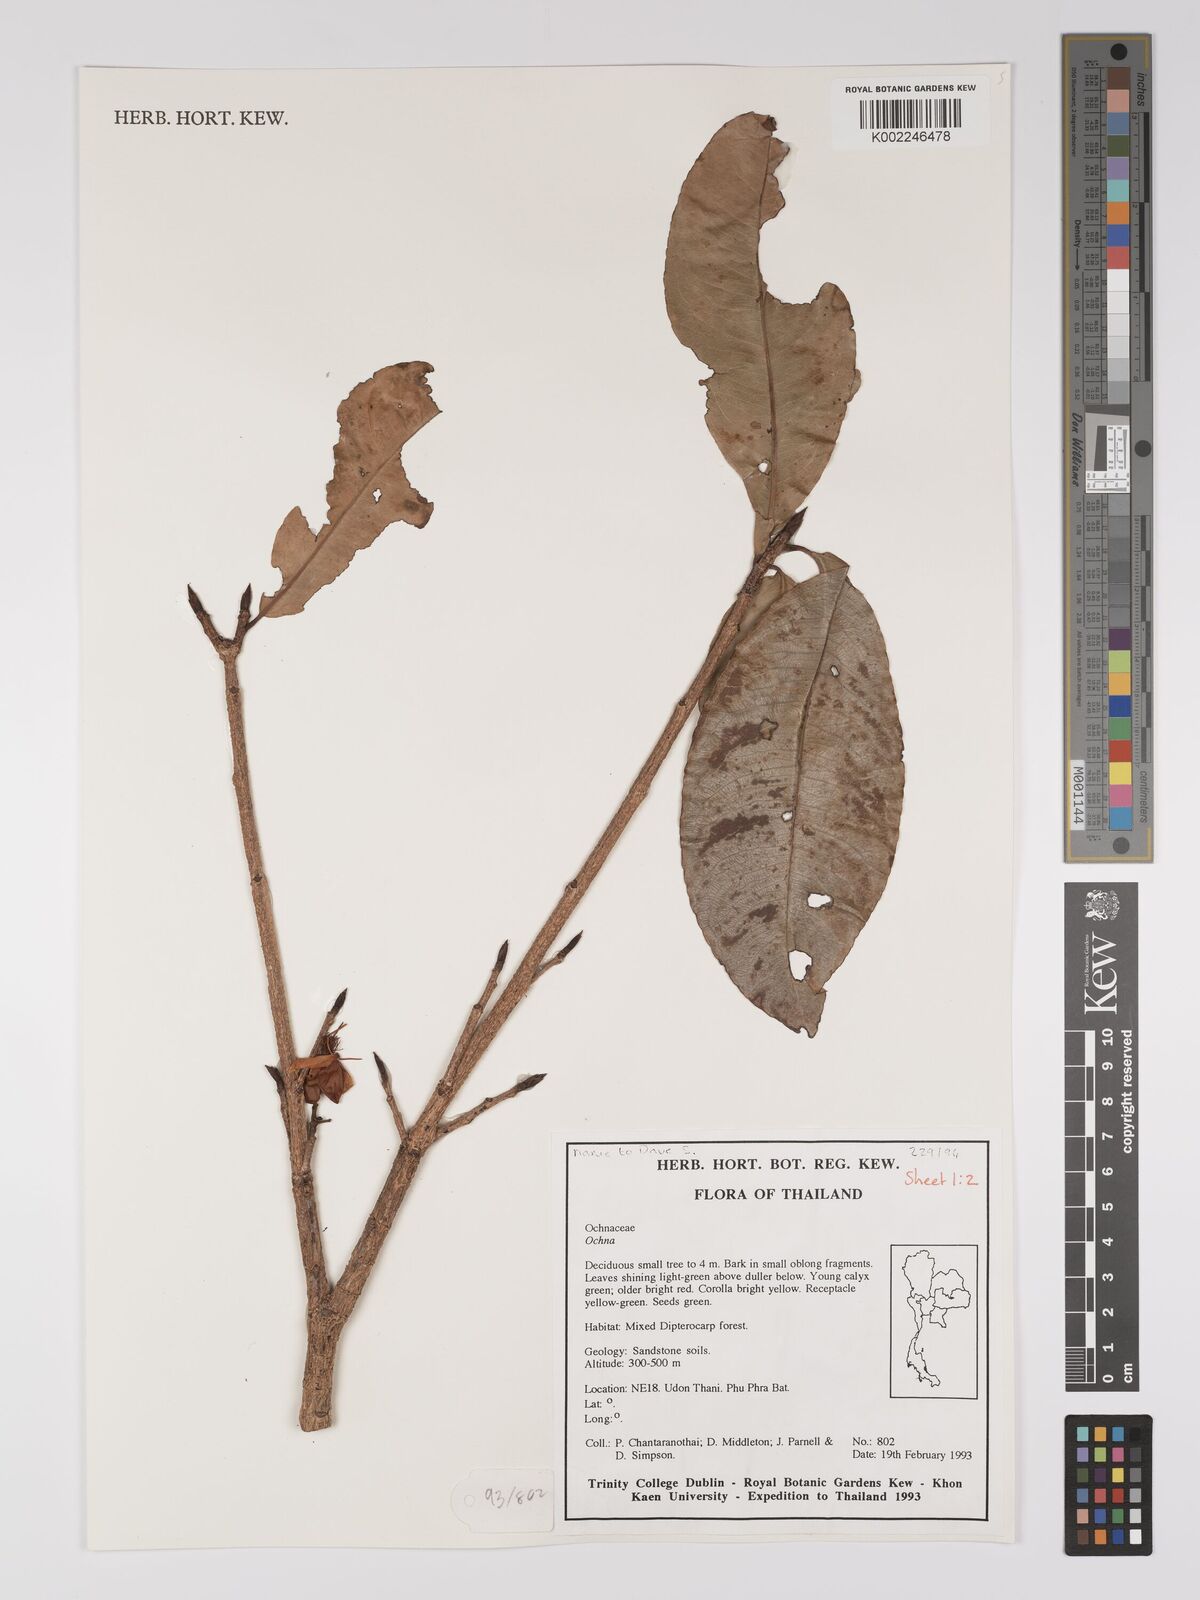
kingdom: Plantae
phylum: Tracheophyta
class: Magnoliopsida
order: Malpighiales
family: Ochnaceae
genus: Ochna
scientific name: Ochna
